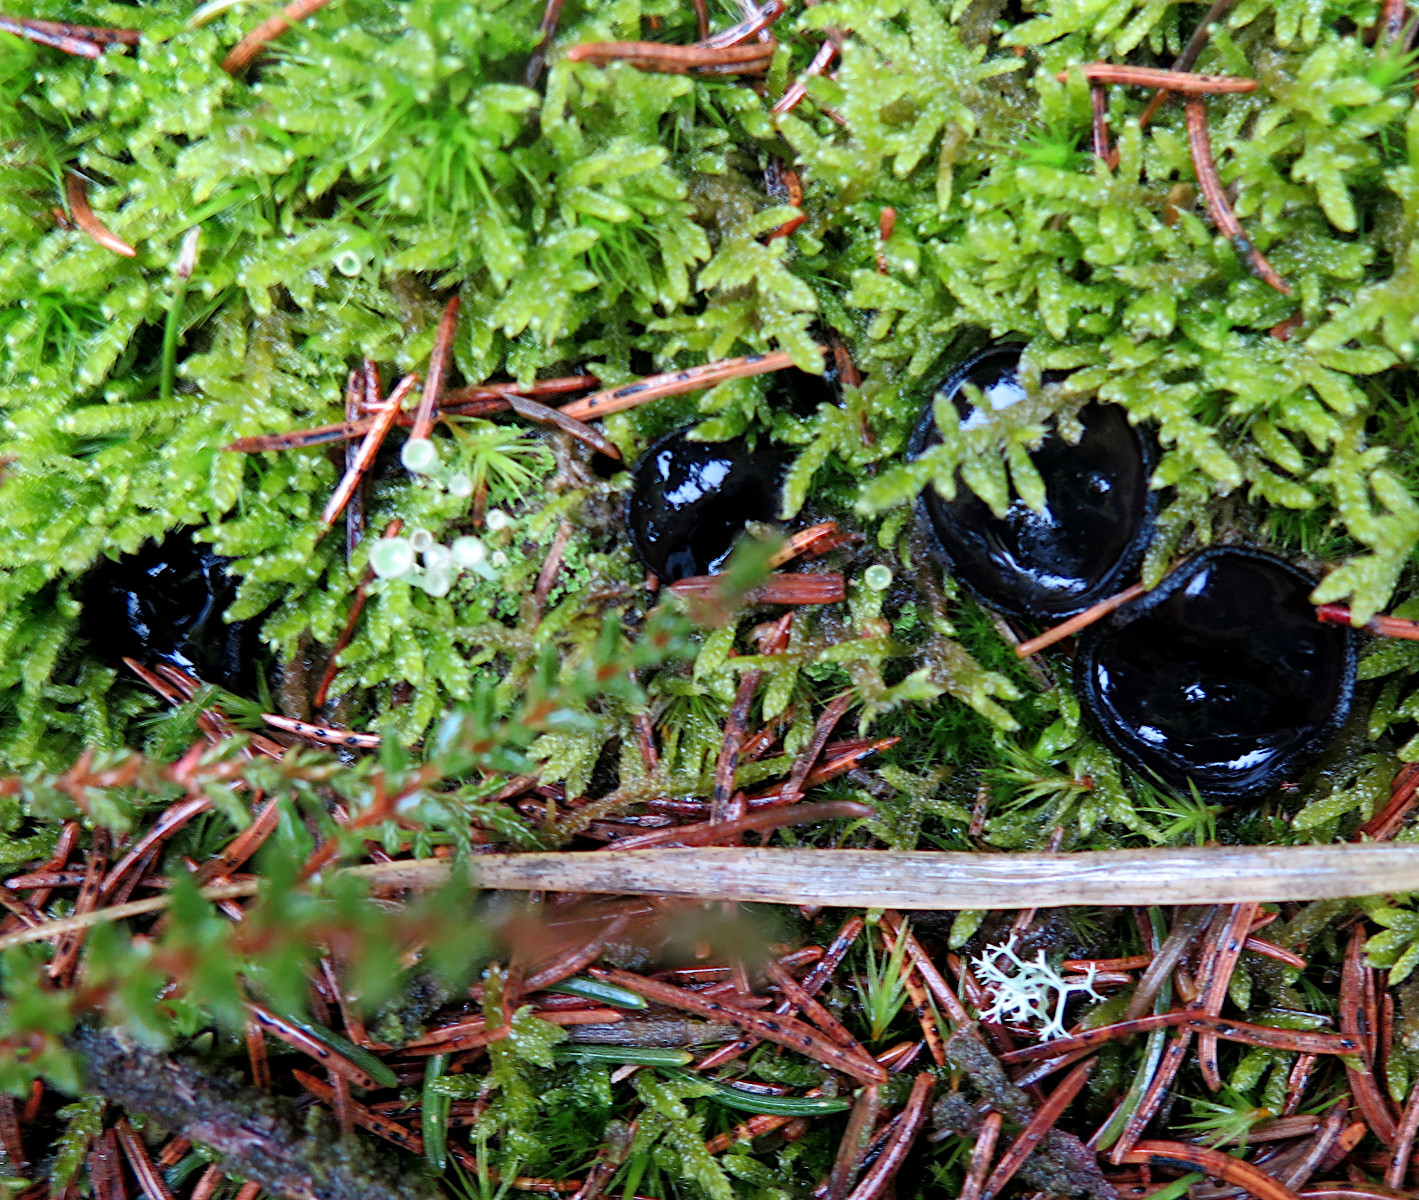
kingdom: Fungi
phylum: Ascomycota
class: Pezizomycetes
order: Pezizales
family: Sarcosomataceae
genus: Pseudoplectania
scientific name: Pseudoplectania nigrella
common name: almindelig sortbæger
